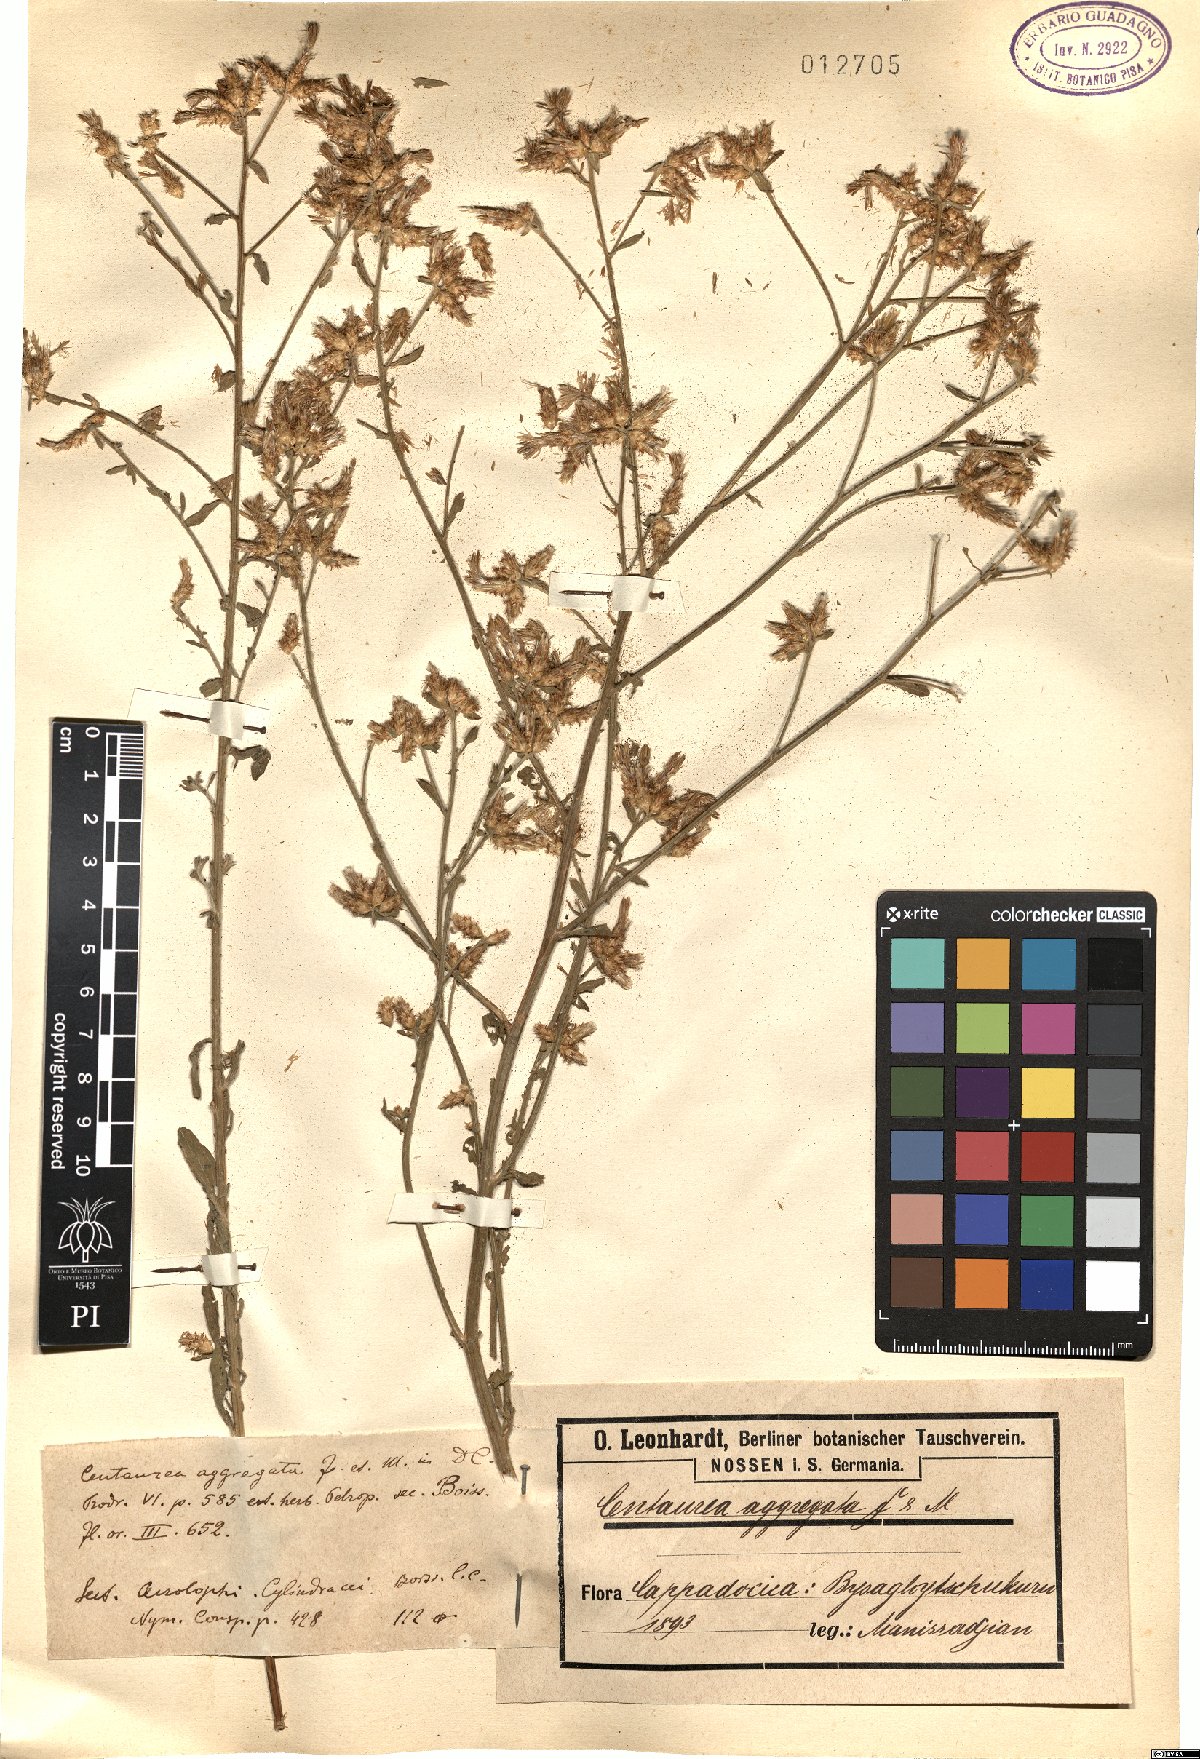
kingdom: Plantae
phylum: Tracheophyta
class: Magnoliopsida
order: Asterales
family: Asteraceae
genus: Centaurea
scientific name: Centaurea aggregata
